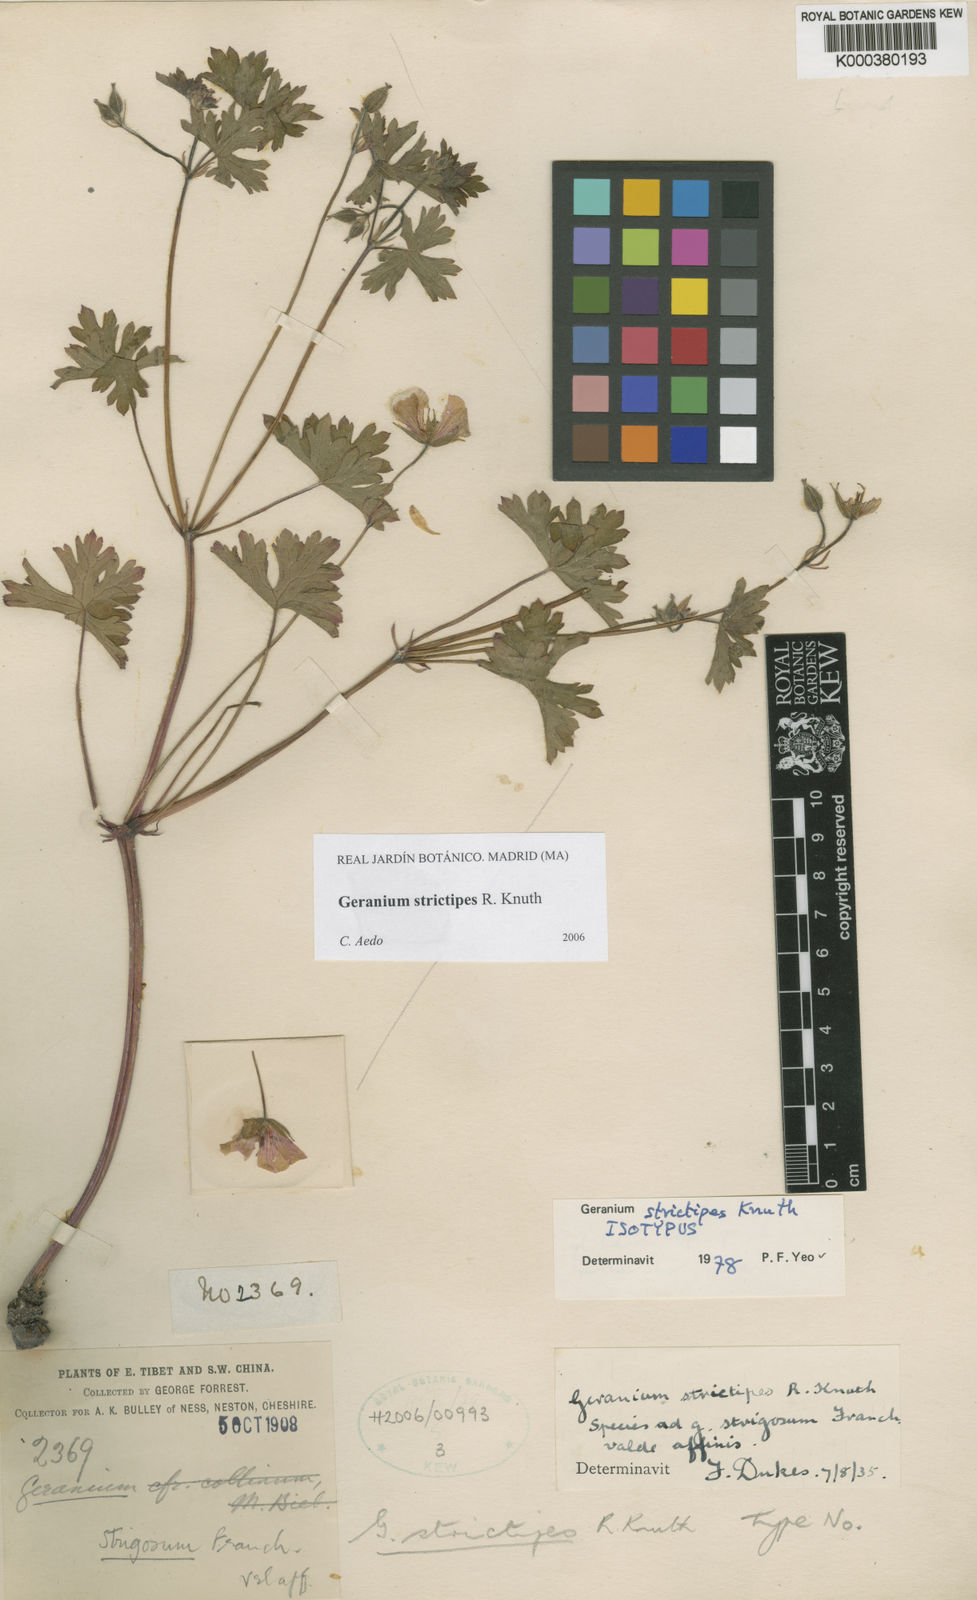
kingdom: Plantae
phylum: Tracheophyta
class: Magnoliopsida
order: Geraniales
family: Geraniaceae
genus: Geranium
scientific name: Geranium strictipes
